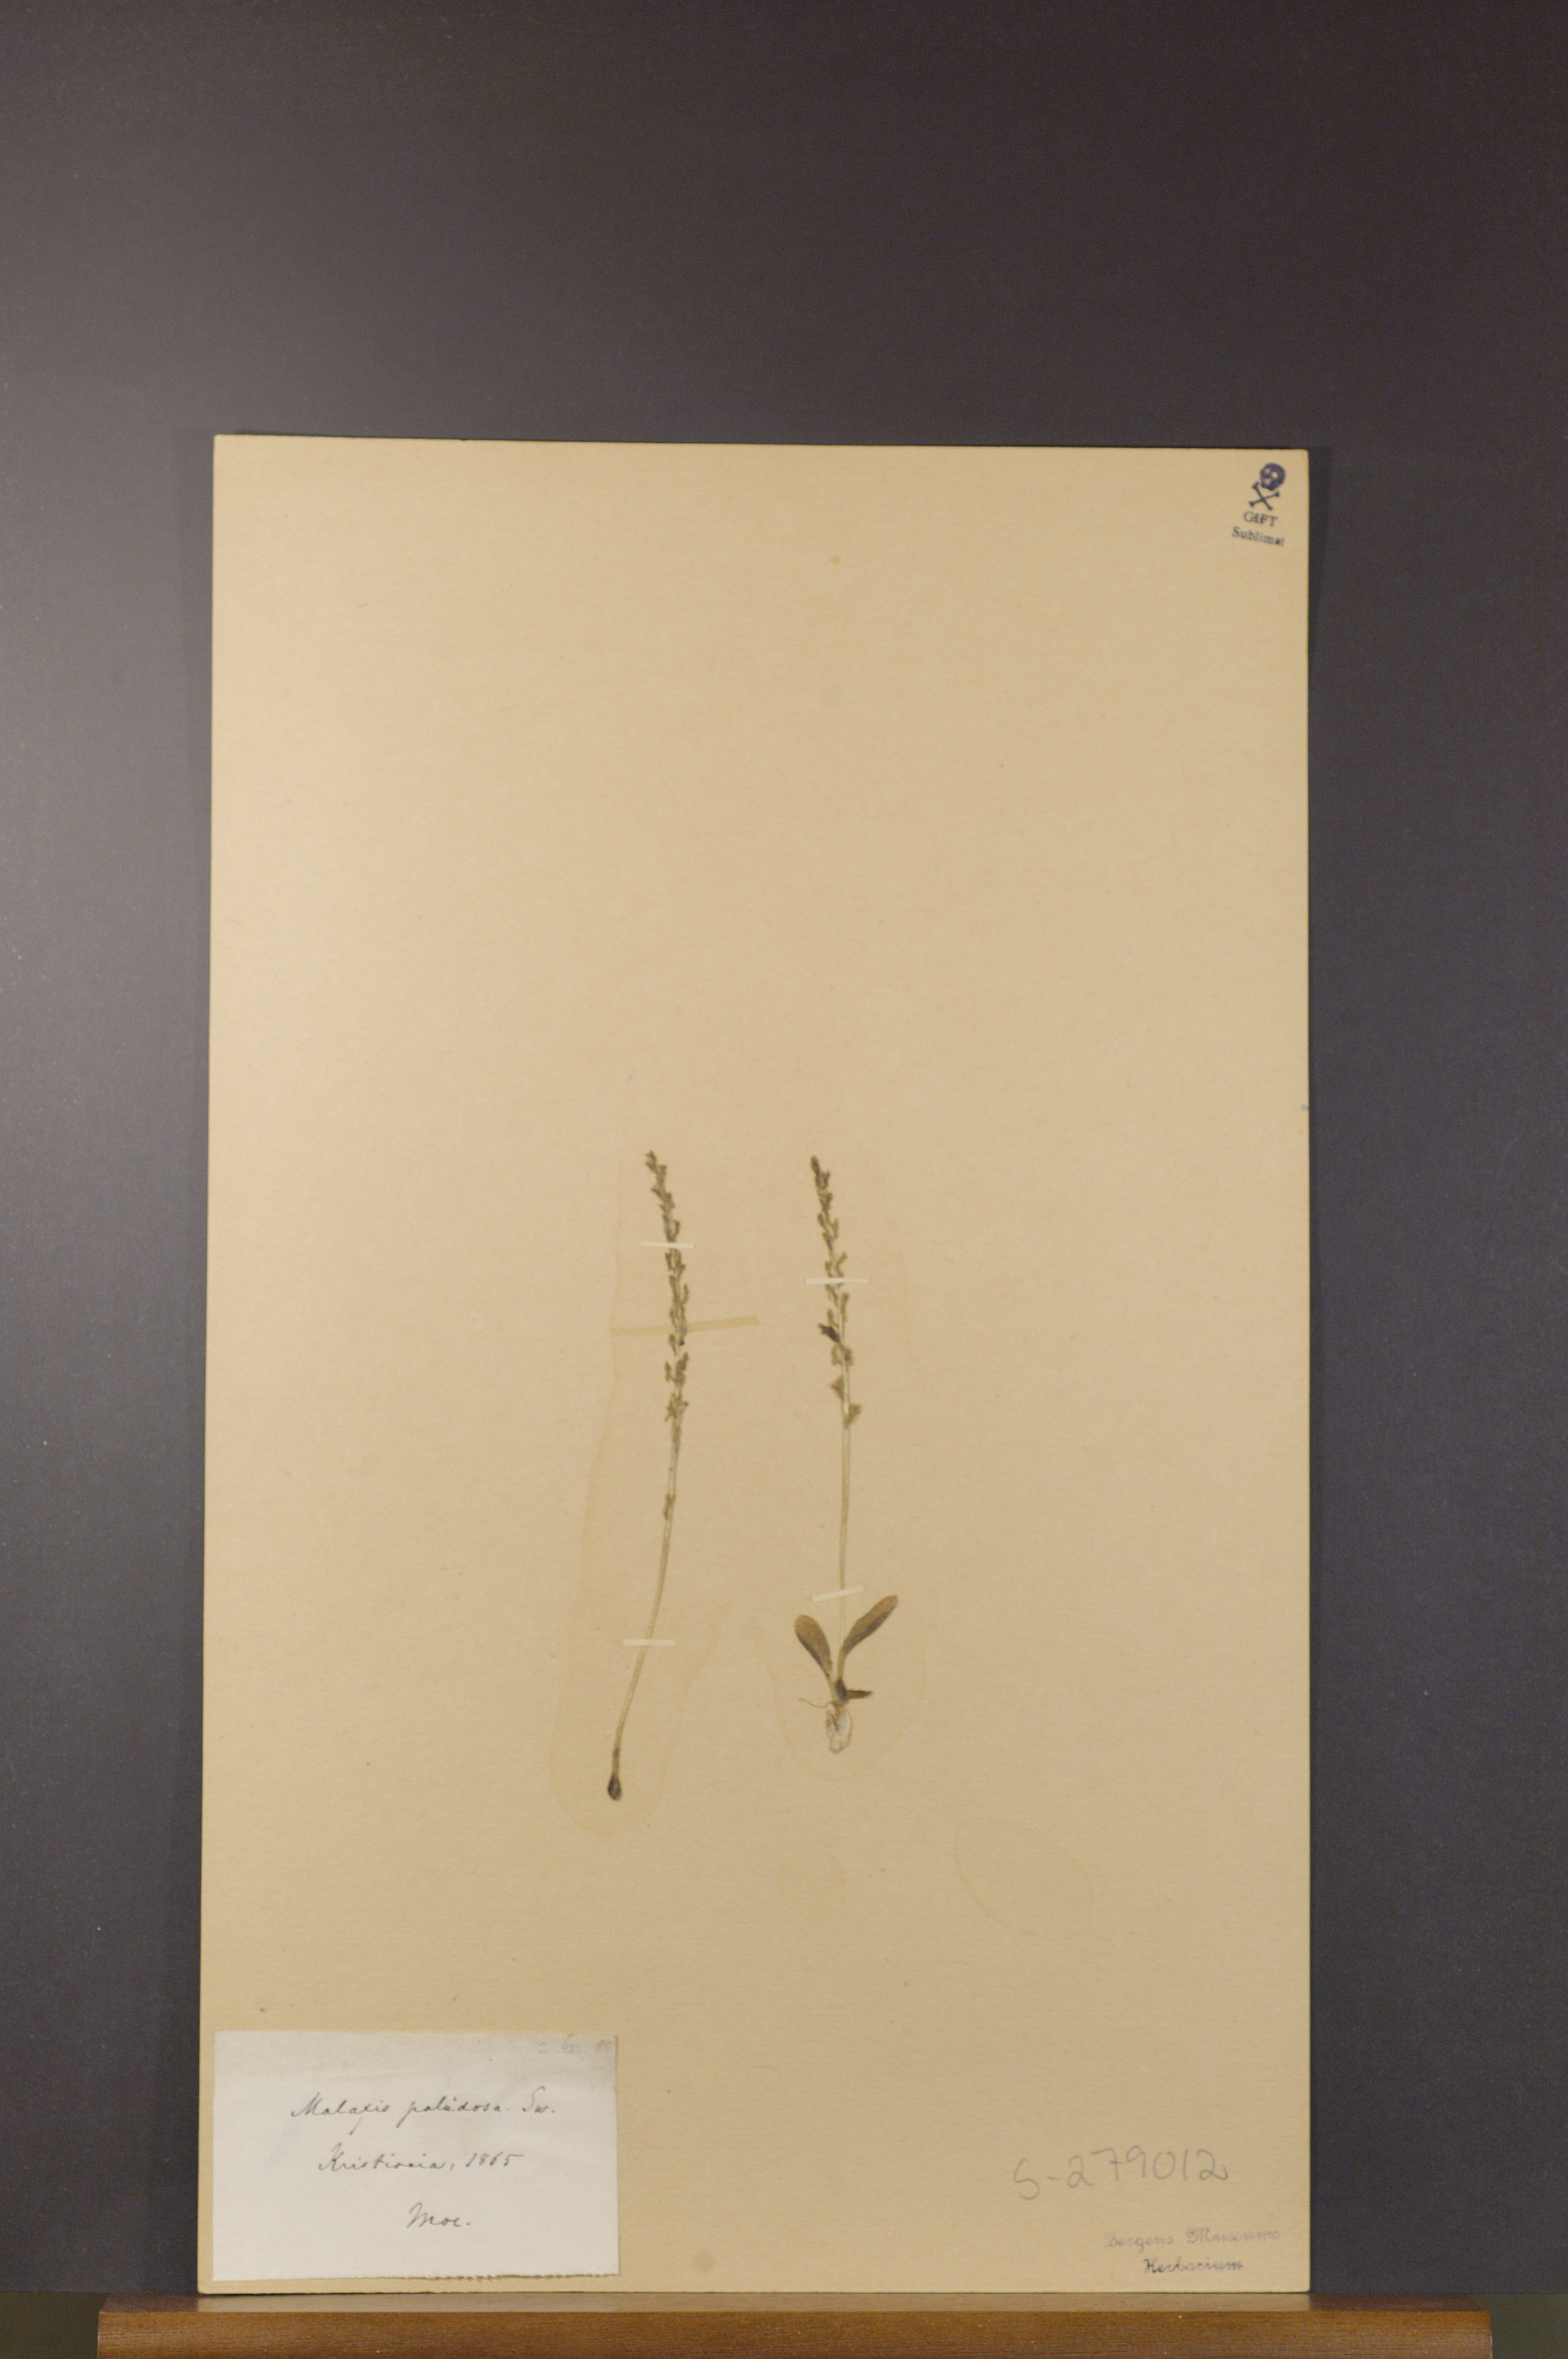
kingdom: Plantae
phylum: Tracheophyta
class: Liliopsida
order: Asparagales
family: Orchidaceae
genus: Hammarbya
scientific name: Hammarbya paludosa
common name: Bog orchid
